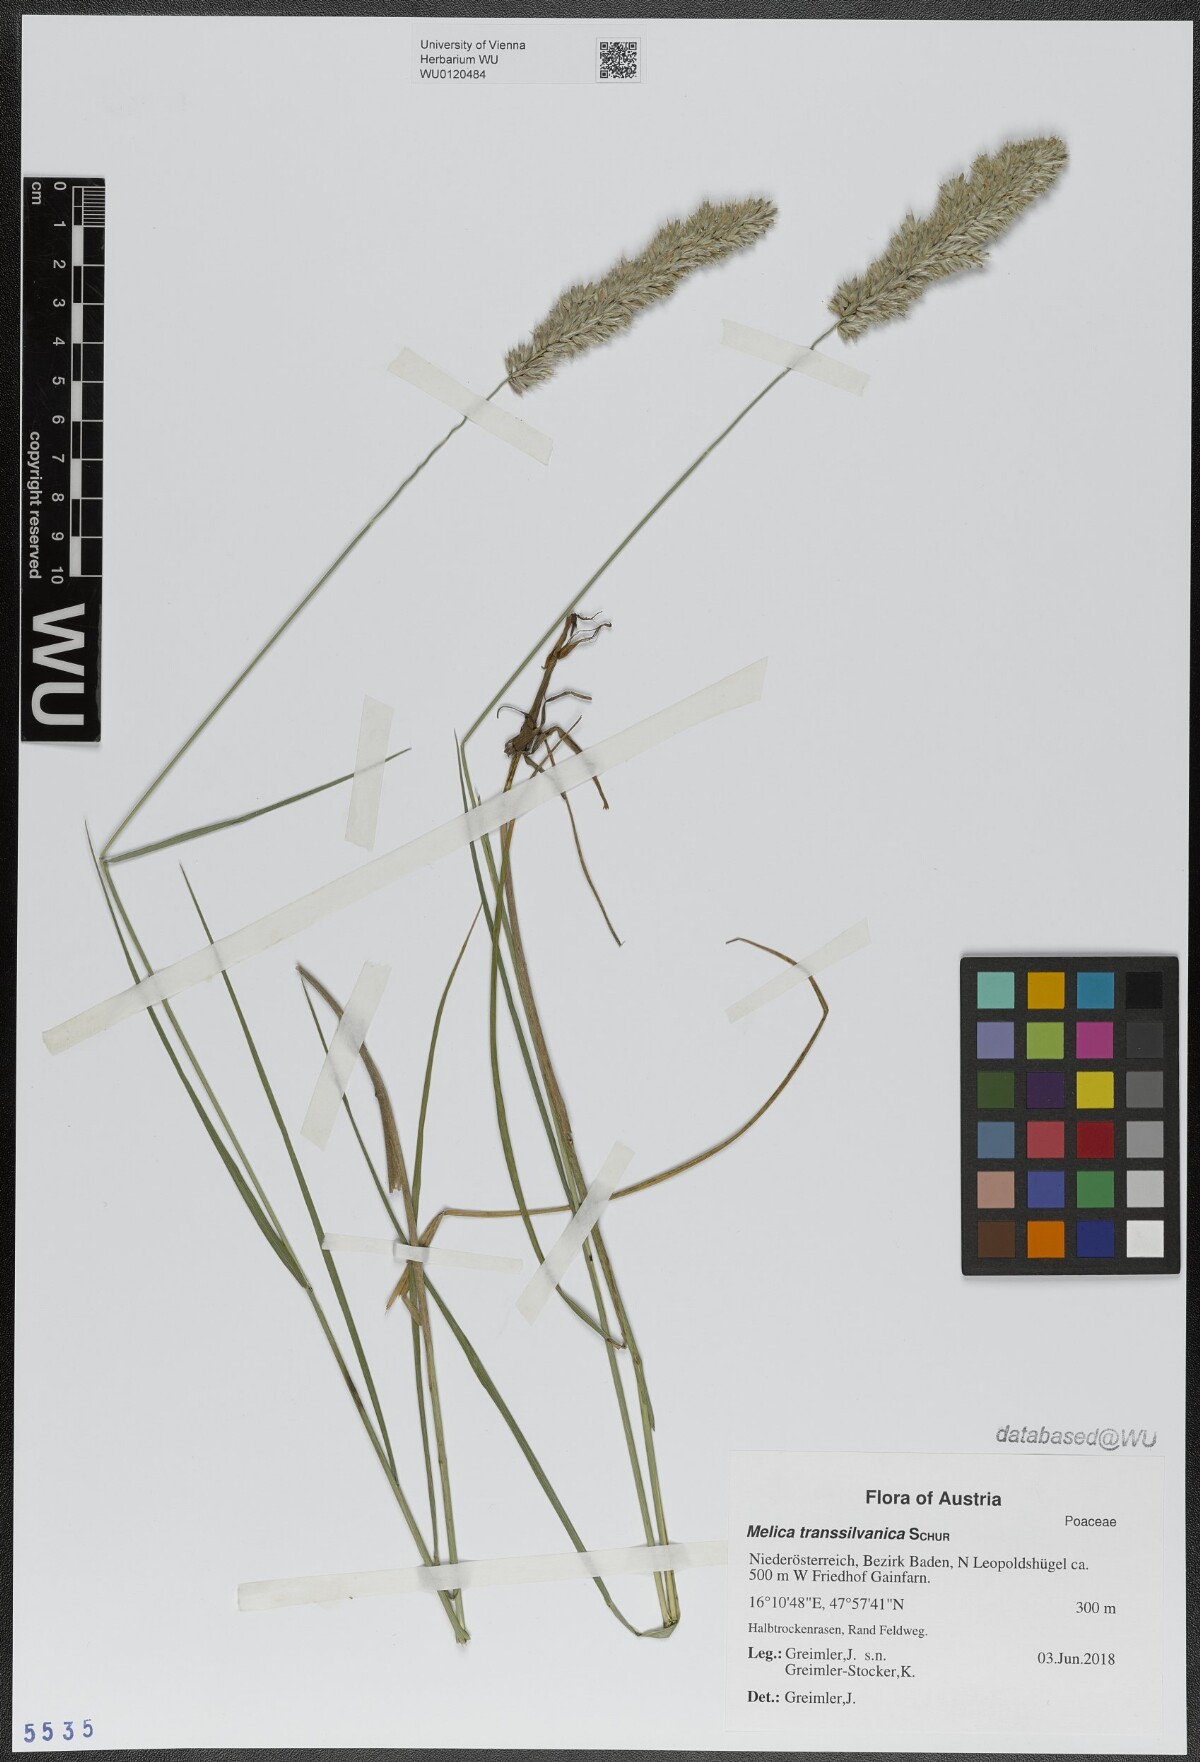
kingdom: Plantae
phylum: Tracheophyta
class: Liliopsida
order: Poales
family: Poaceae
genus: Melica
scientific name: Melica transsilvanica
